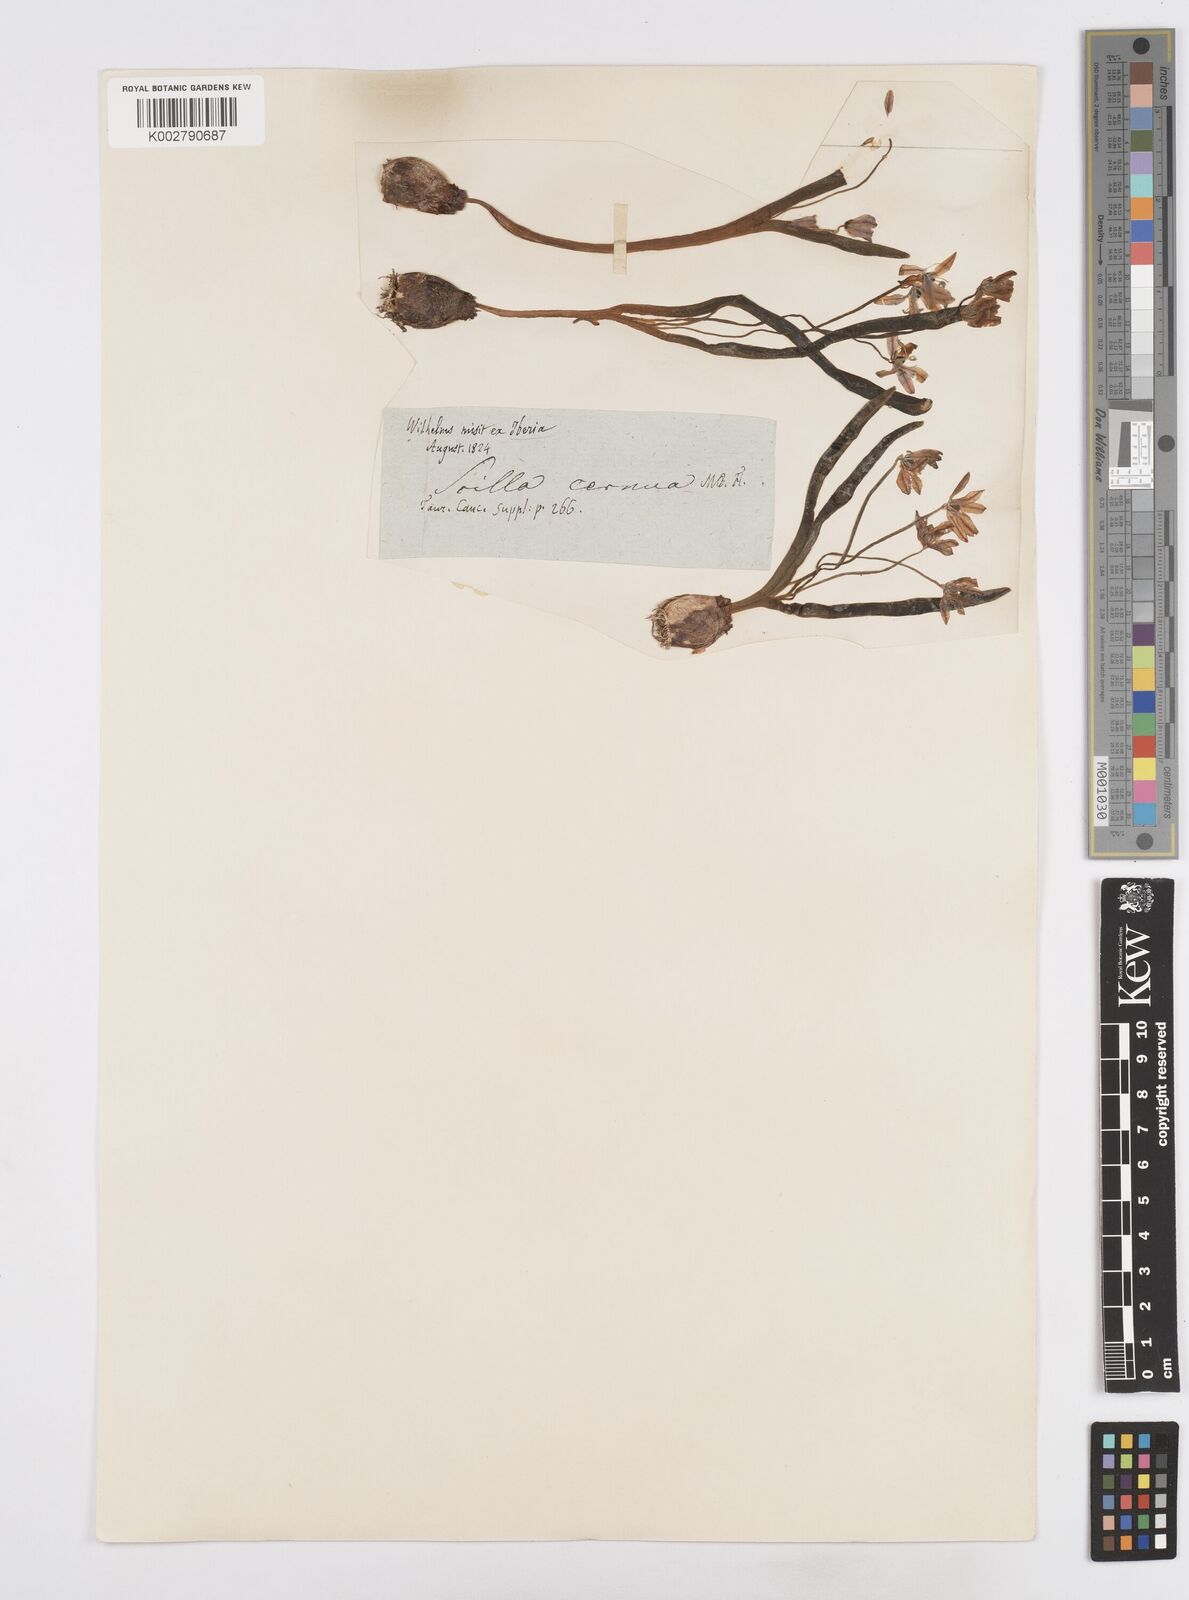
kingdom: Plantae
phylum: Tracheophyta
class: Liliopsida
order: Asparagales
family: Asparagaceae
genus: Scilla
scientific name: Scilla siberica
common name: Siberian squill
